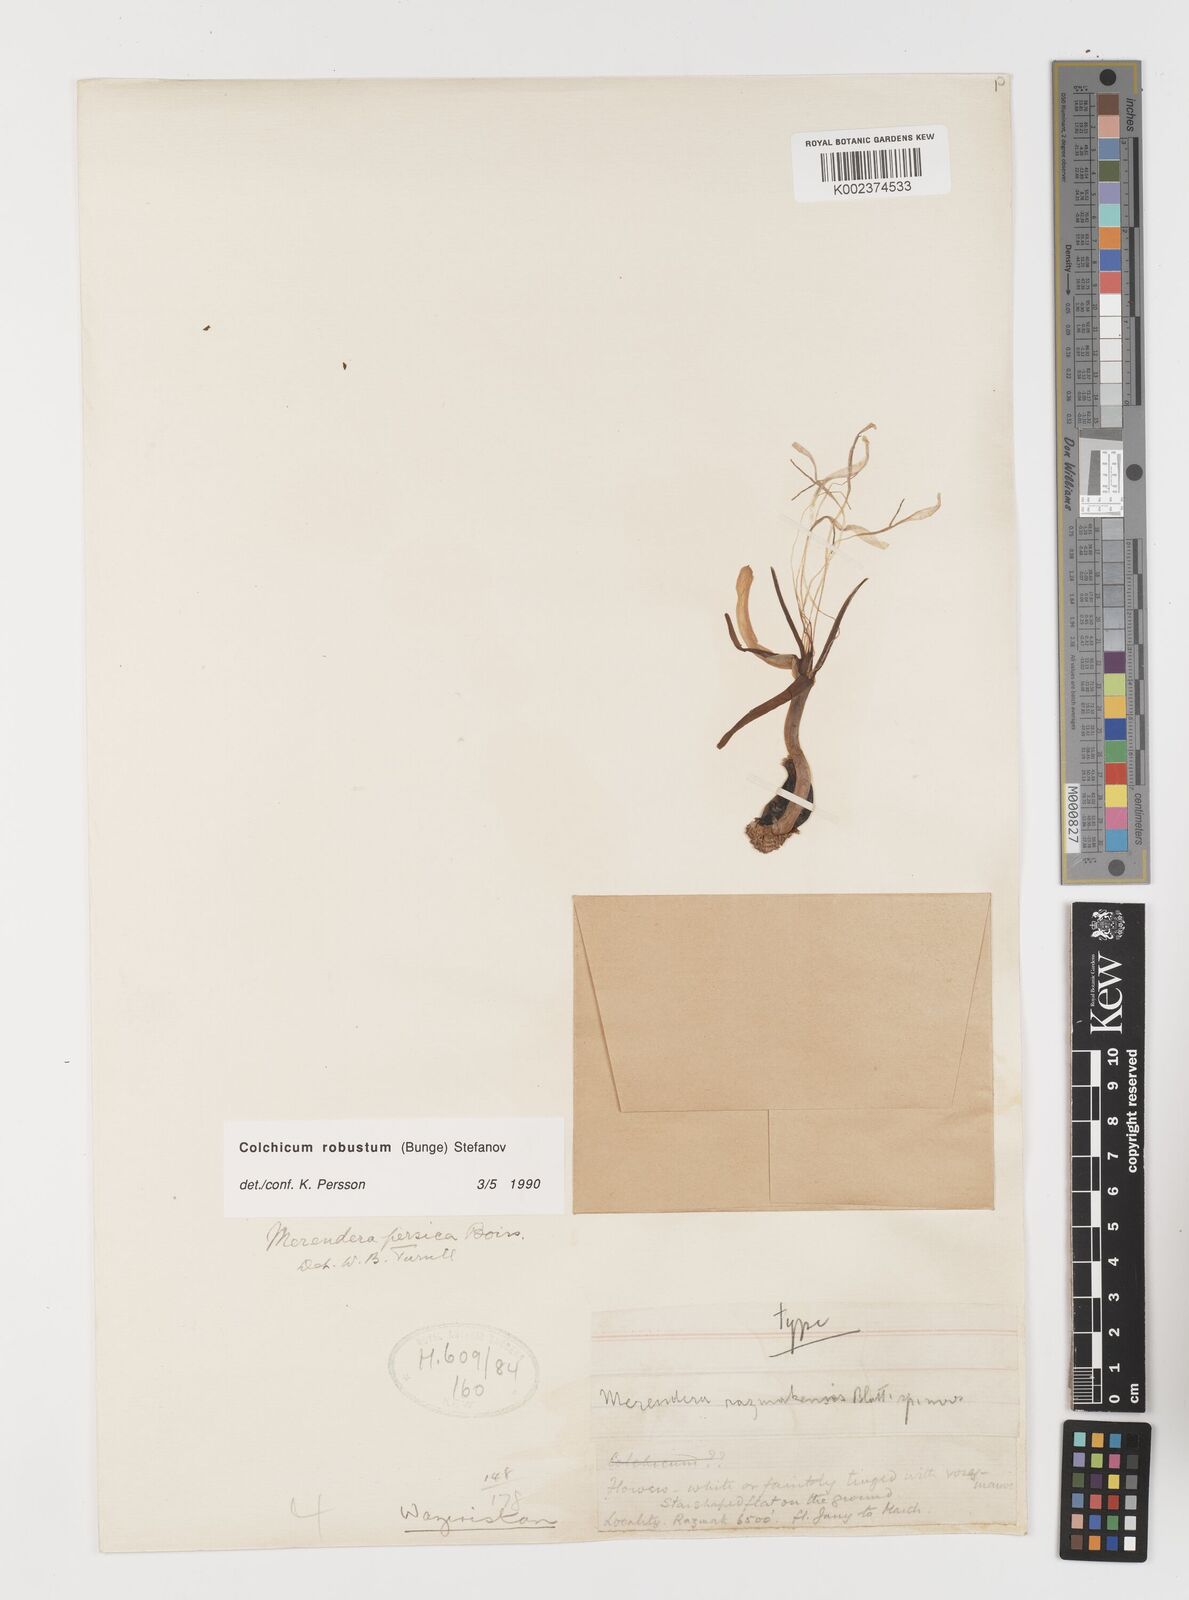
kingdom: Plantae
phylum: Tracheophyta
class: Liliopsida
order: Liliales
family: Colchicaceae
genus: Colchicum
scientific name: Colchicum robustum
